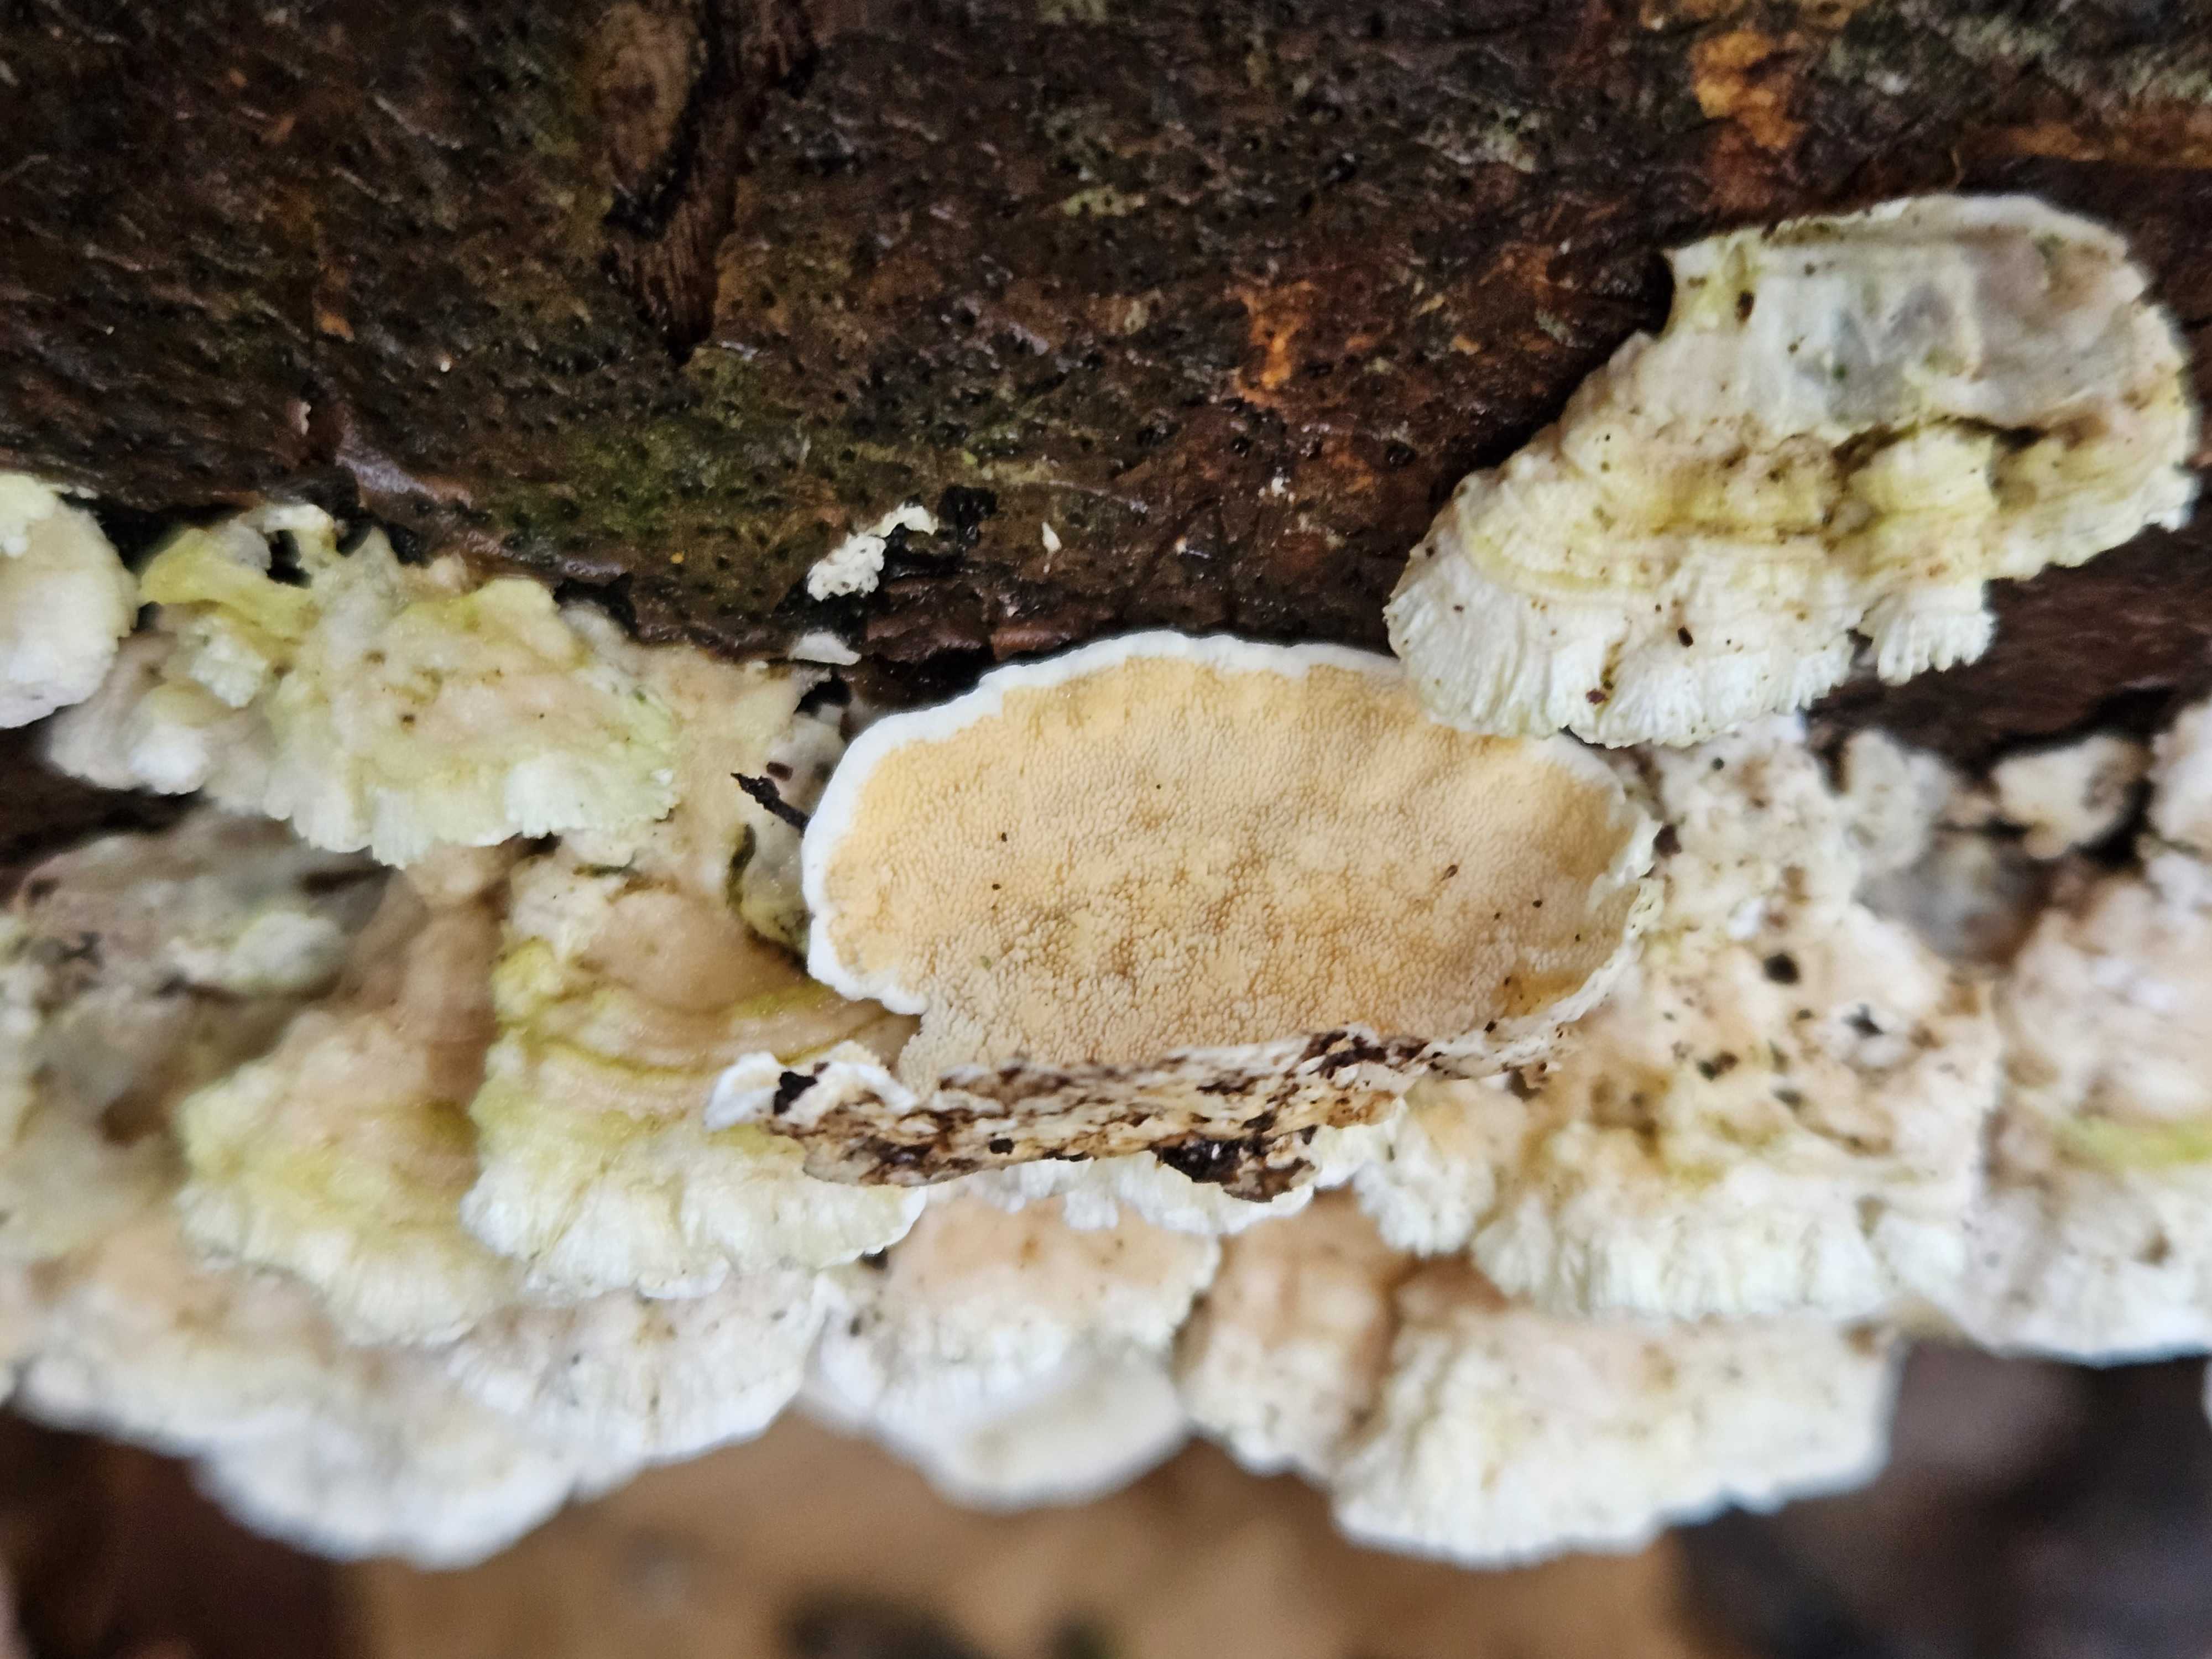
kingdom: Fungi
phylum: Basidiomycota
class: Agaricomycetes
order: Polyporales
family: Steccherinaceae
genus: Steccherinum
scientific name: Steccherinum ochraceum
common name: almindelig skønpig
